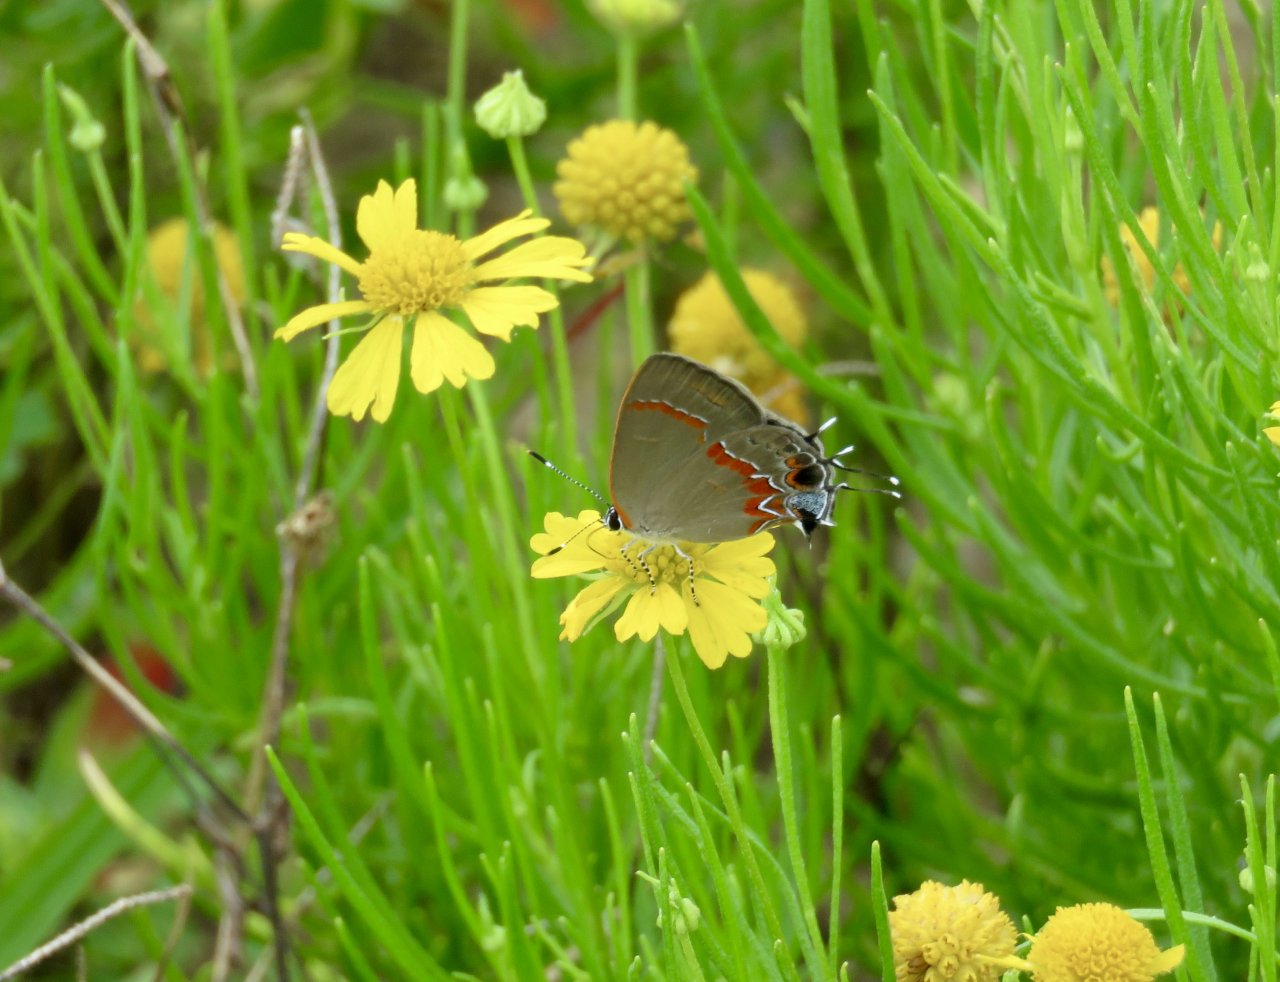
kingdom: Animalia
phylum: Arthropoda
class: Insecta
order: Lepidoptera
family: Lycaenidae
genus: Calycopis
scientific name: Calycopis cecrops
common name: Red-banded Hairstreak
